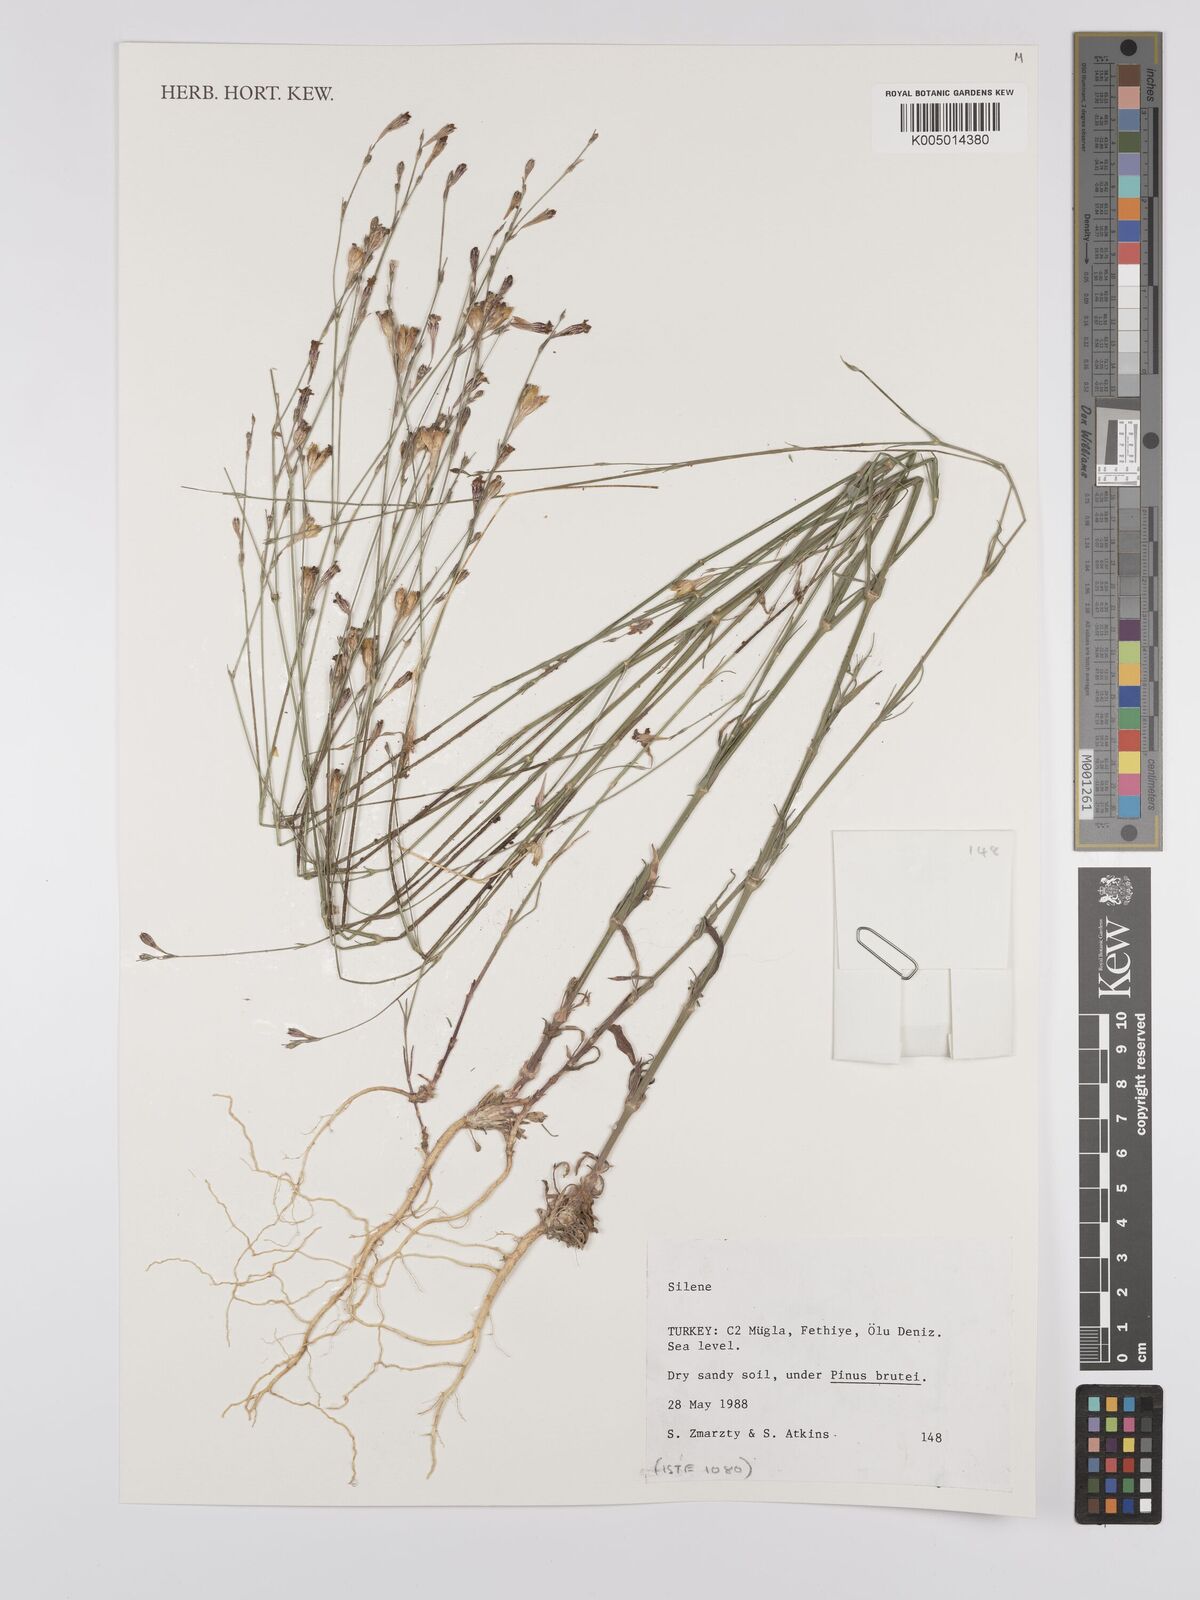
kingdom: Plantae
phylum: Tracheophyta
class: Magnoliopsida
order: Caryophyllales
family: Caryophyllaceae
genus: Silene
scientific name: Silene
